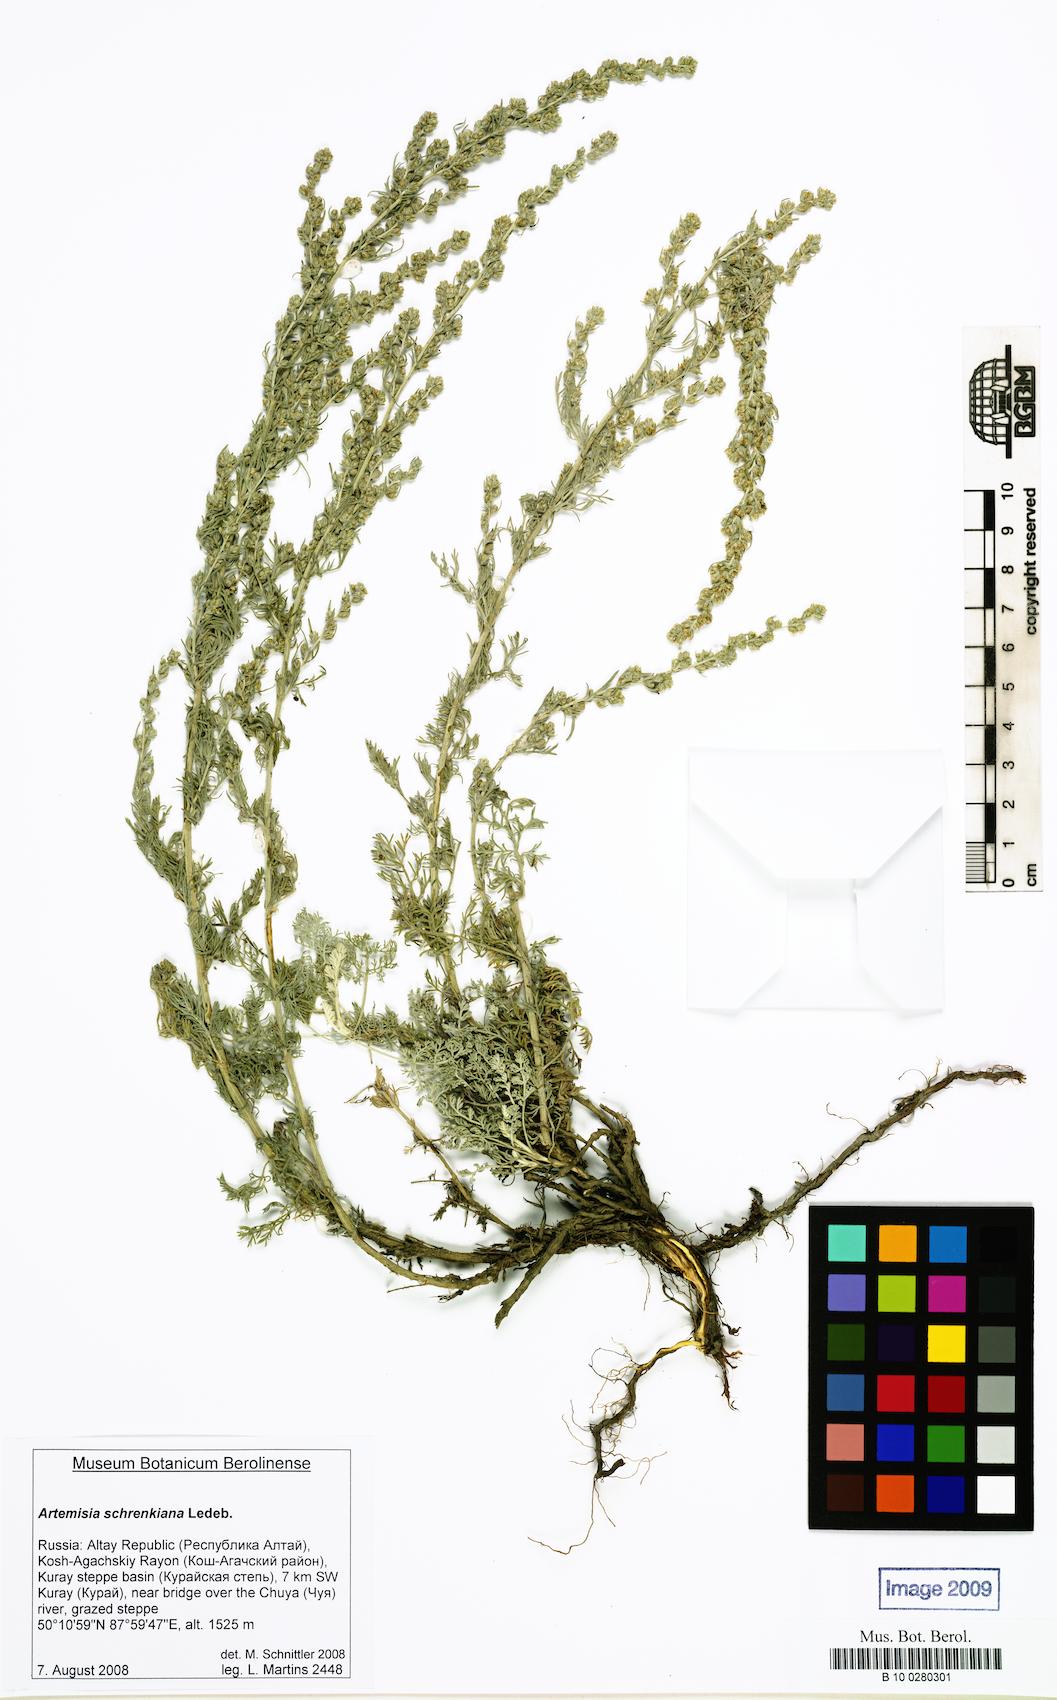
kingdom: Plantae
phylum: Tracheophyta
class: Magnoliopsida
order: Asterales
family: Asteraceae
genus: Artemisia
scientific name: Artemisia schrenkiana
